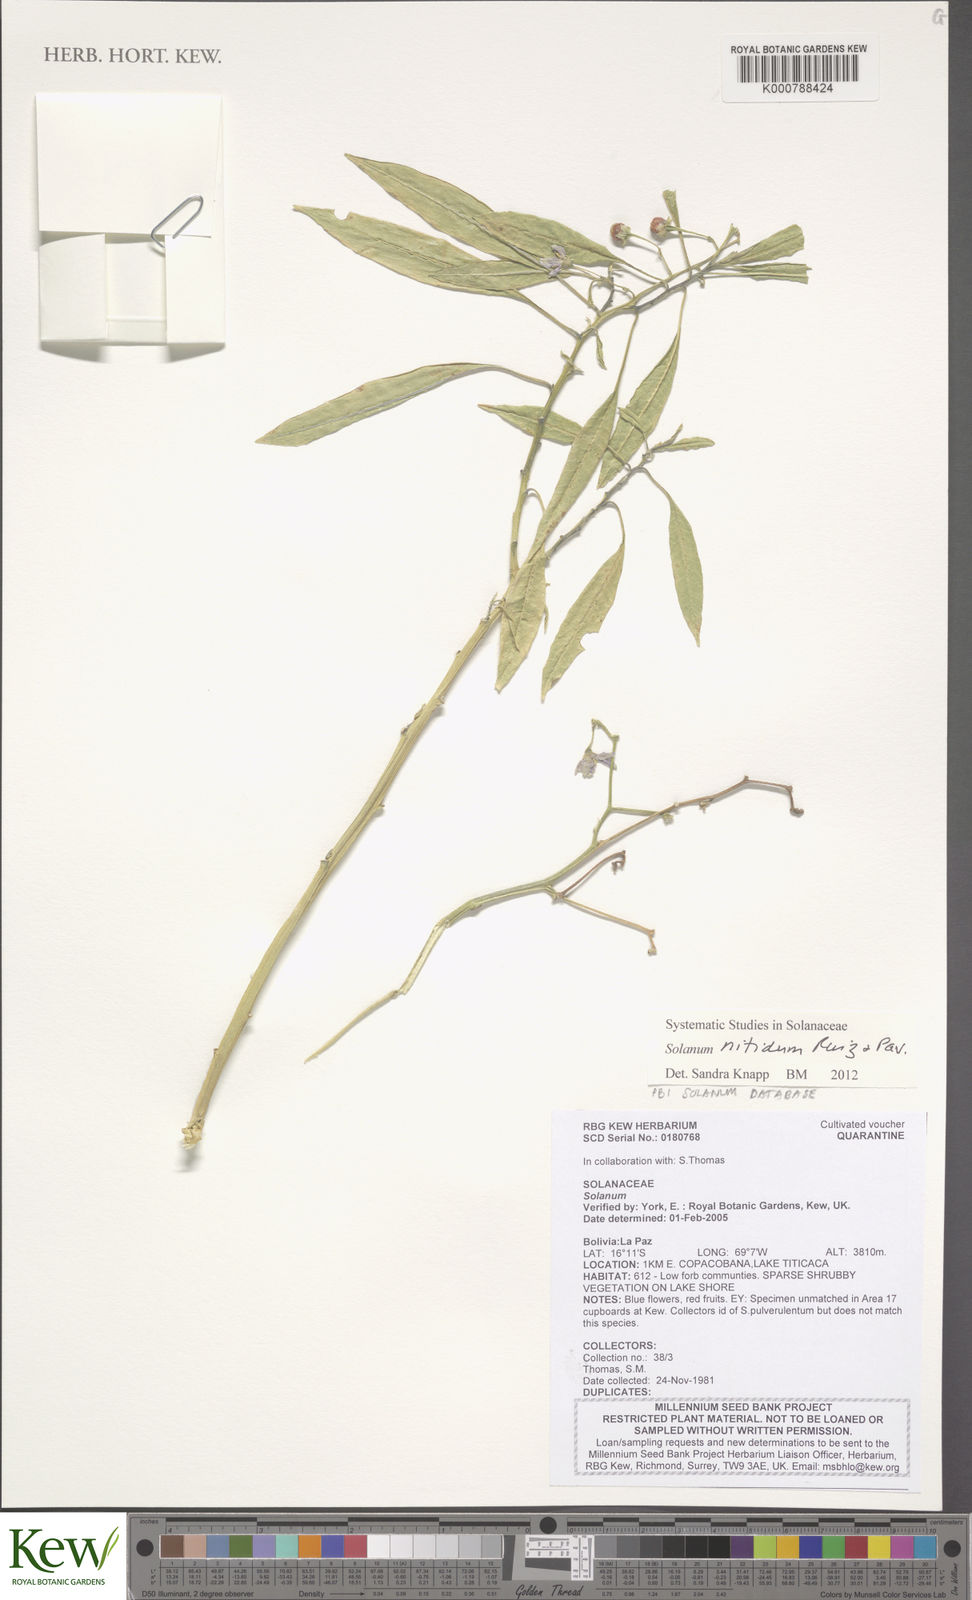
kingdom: Plantae
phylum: Tracheophyta
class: Magnoliopsida
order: Solanales
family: Solanaceae
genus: Solanum
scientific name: Solanum nitidum
